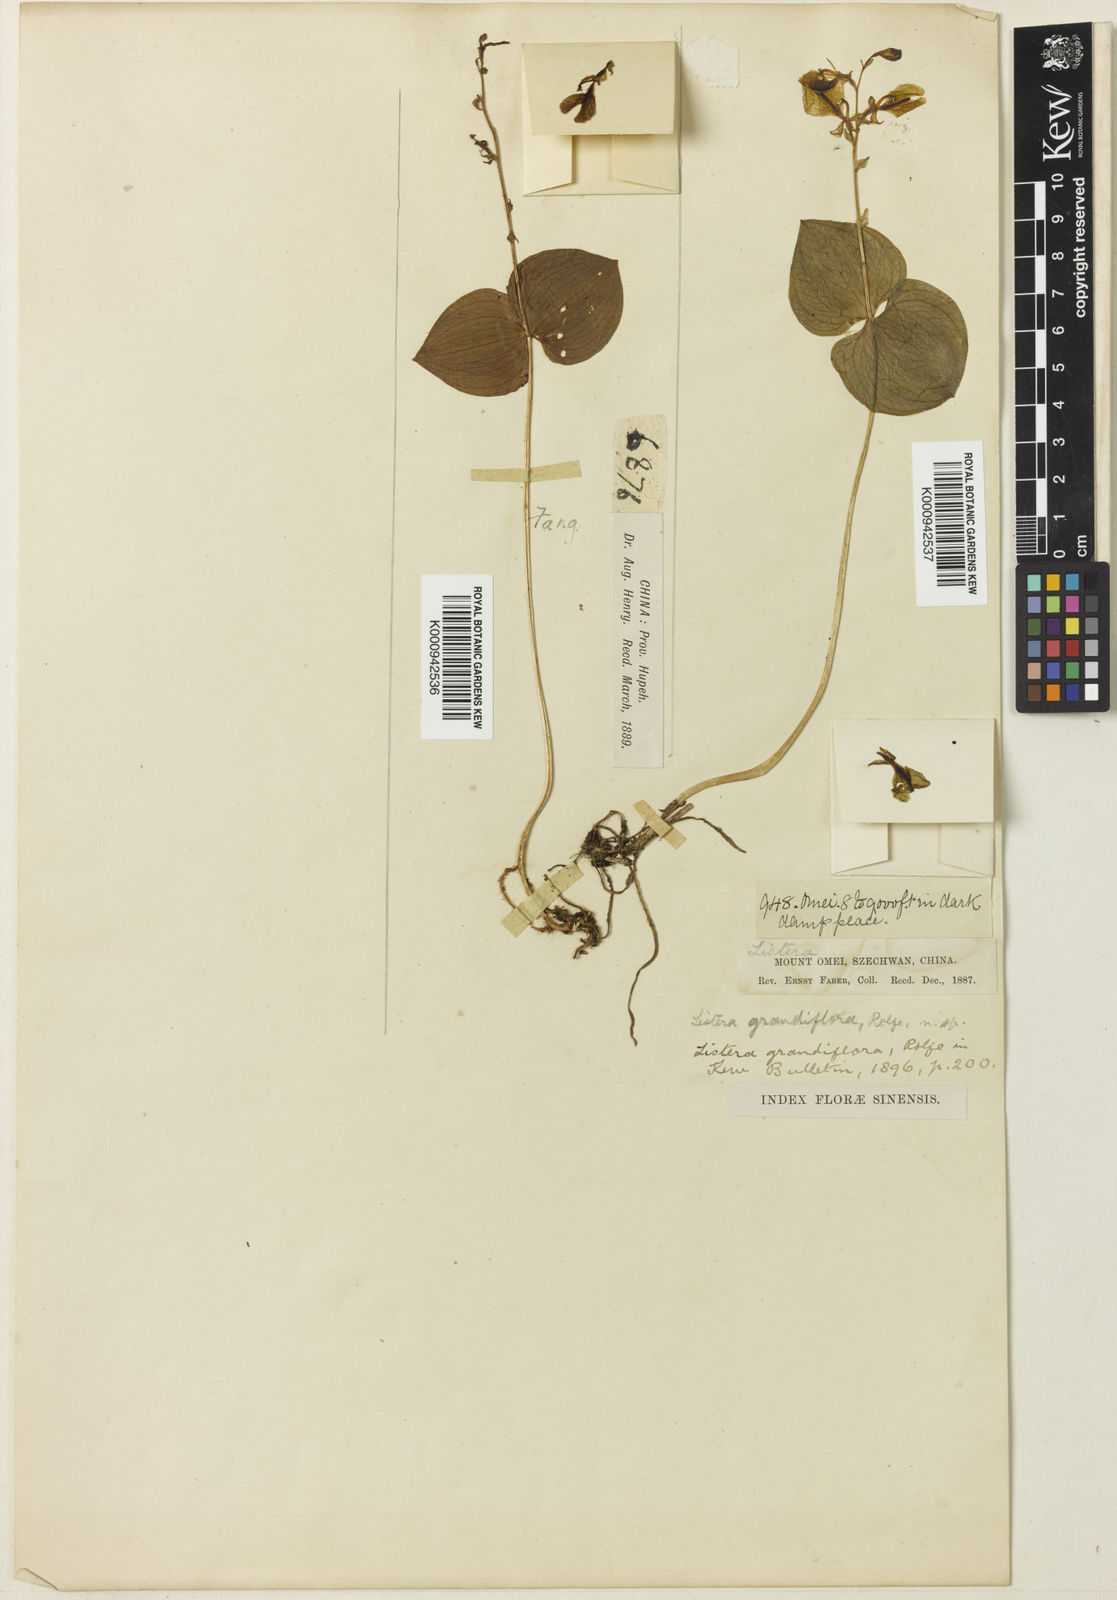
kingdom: Plantae
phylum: Tracheophyta
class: Liliopsida
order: Asparagales
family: Orchidaceae
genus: Neottia
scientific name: Neottia wardii
